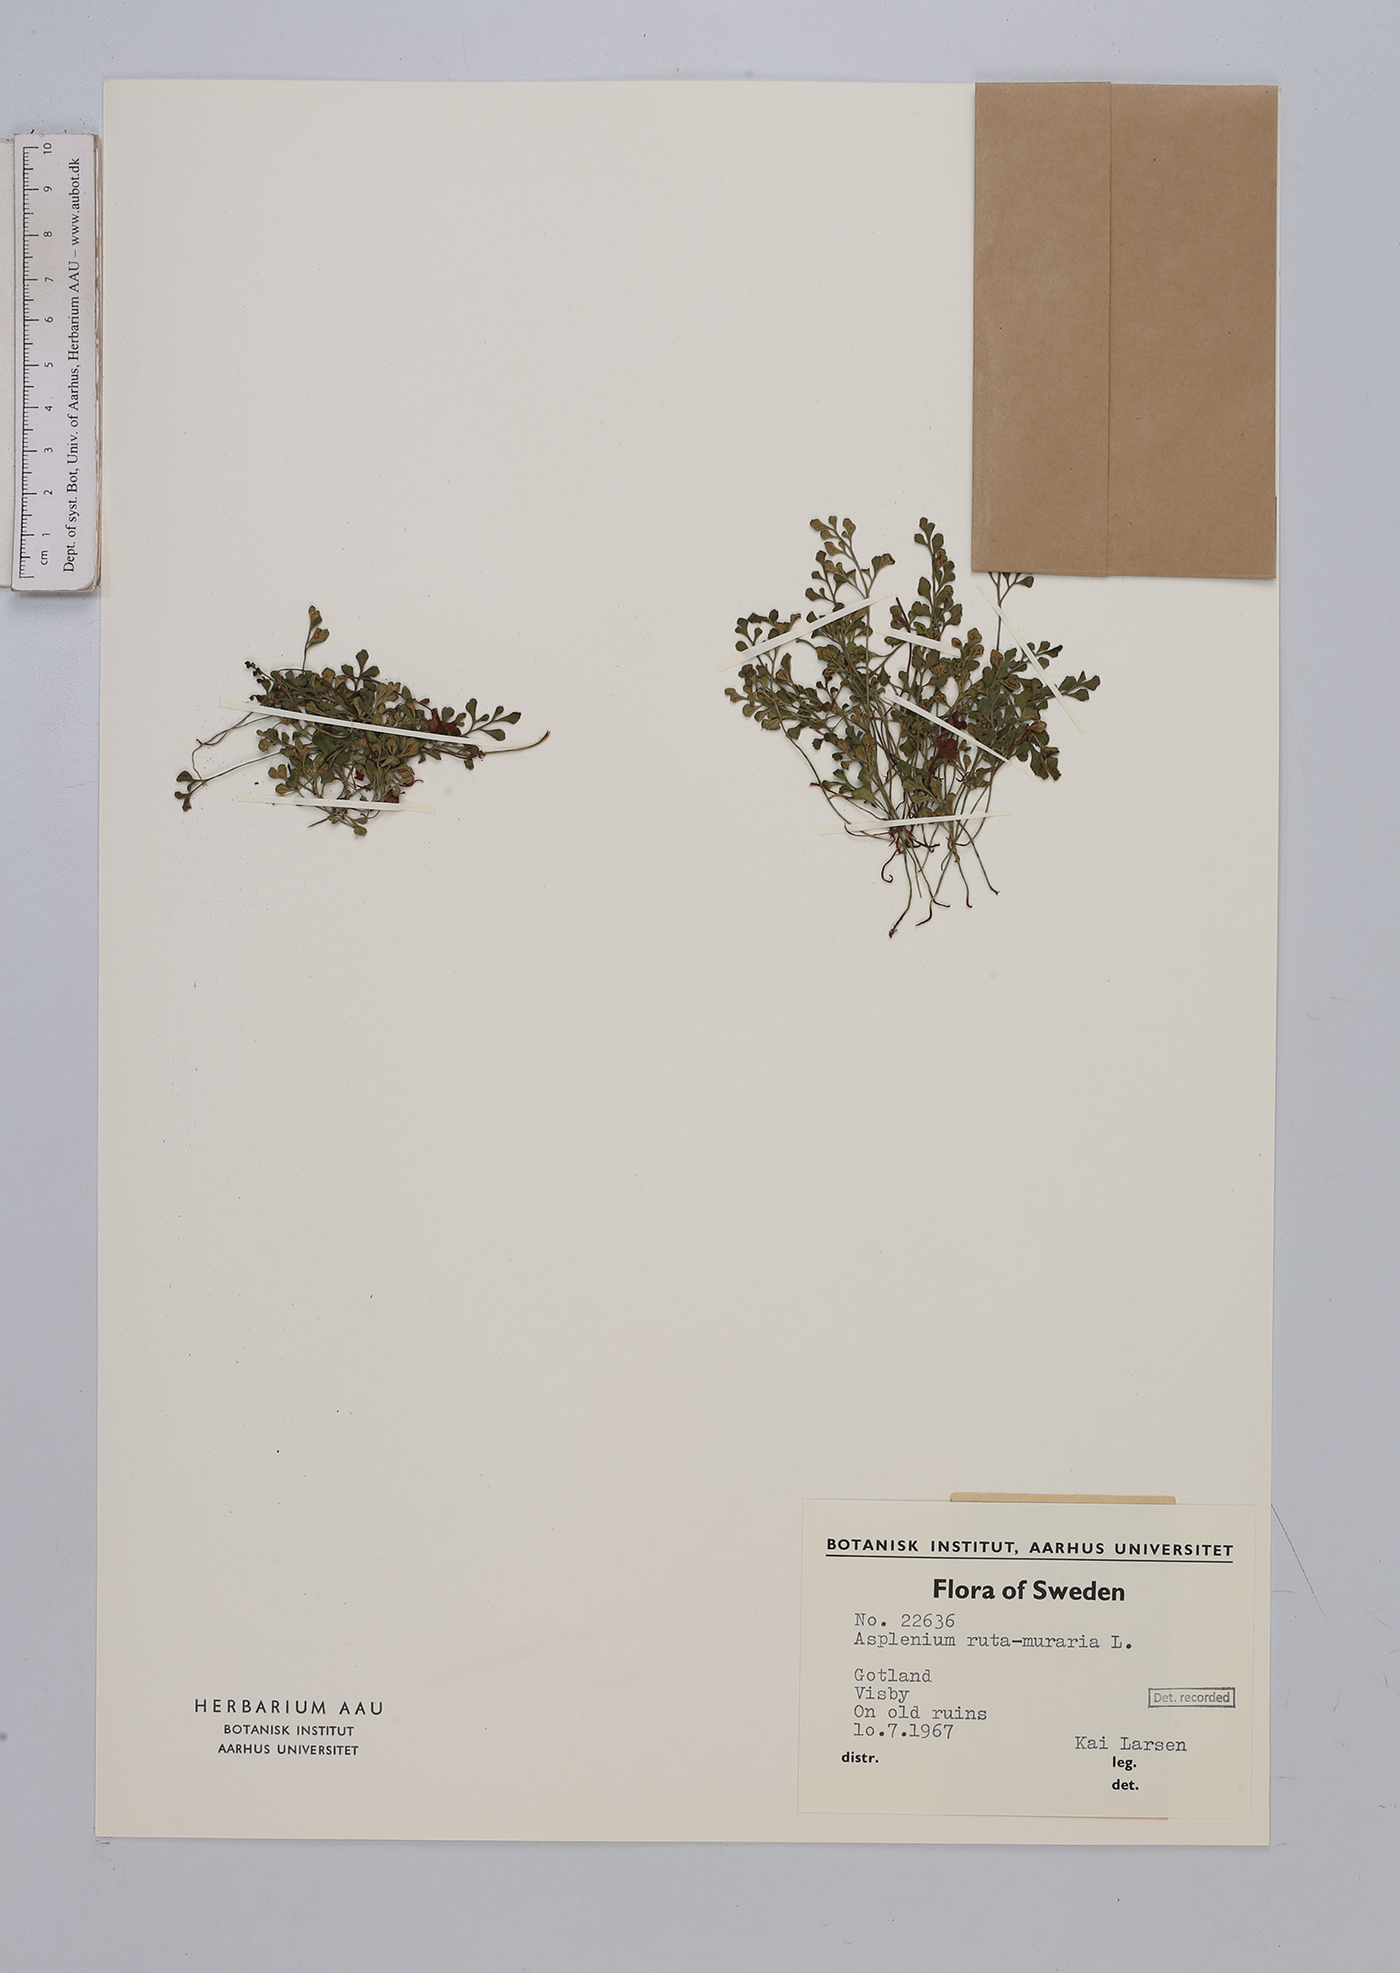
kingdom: Plantae
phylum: Tracheophyta
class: Polypodiopsida
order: Polypodiales
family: Aspleniaceae
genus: Asplenium
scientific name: Asplenium ruta-muraria
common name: Wall-rue
